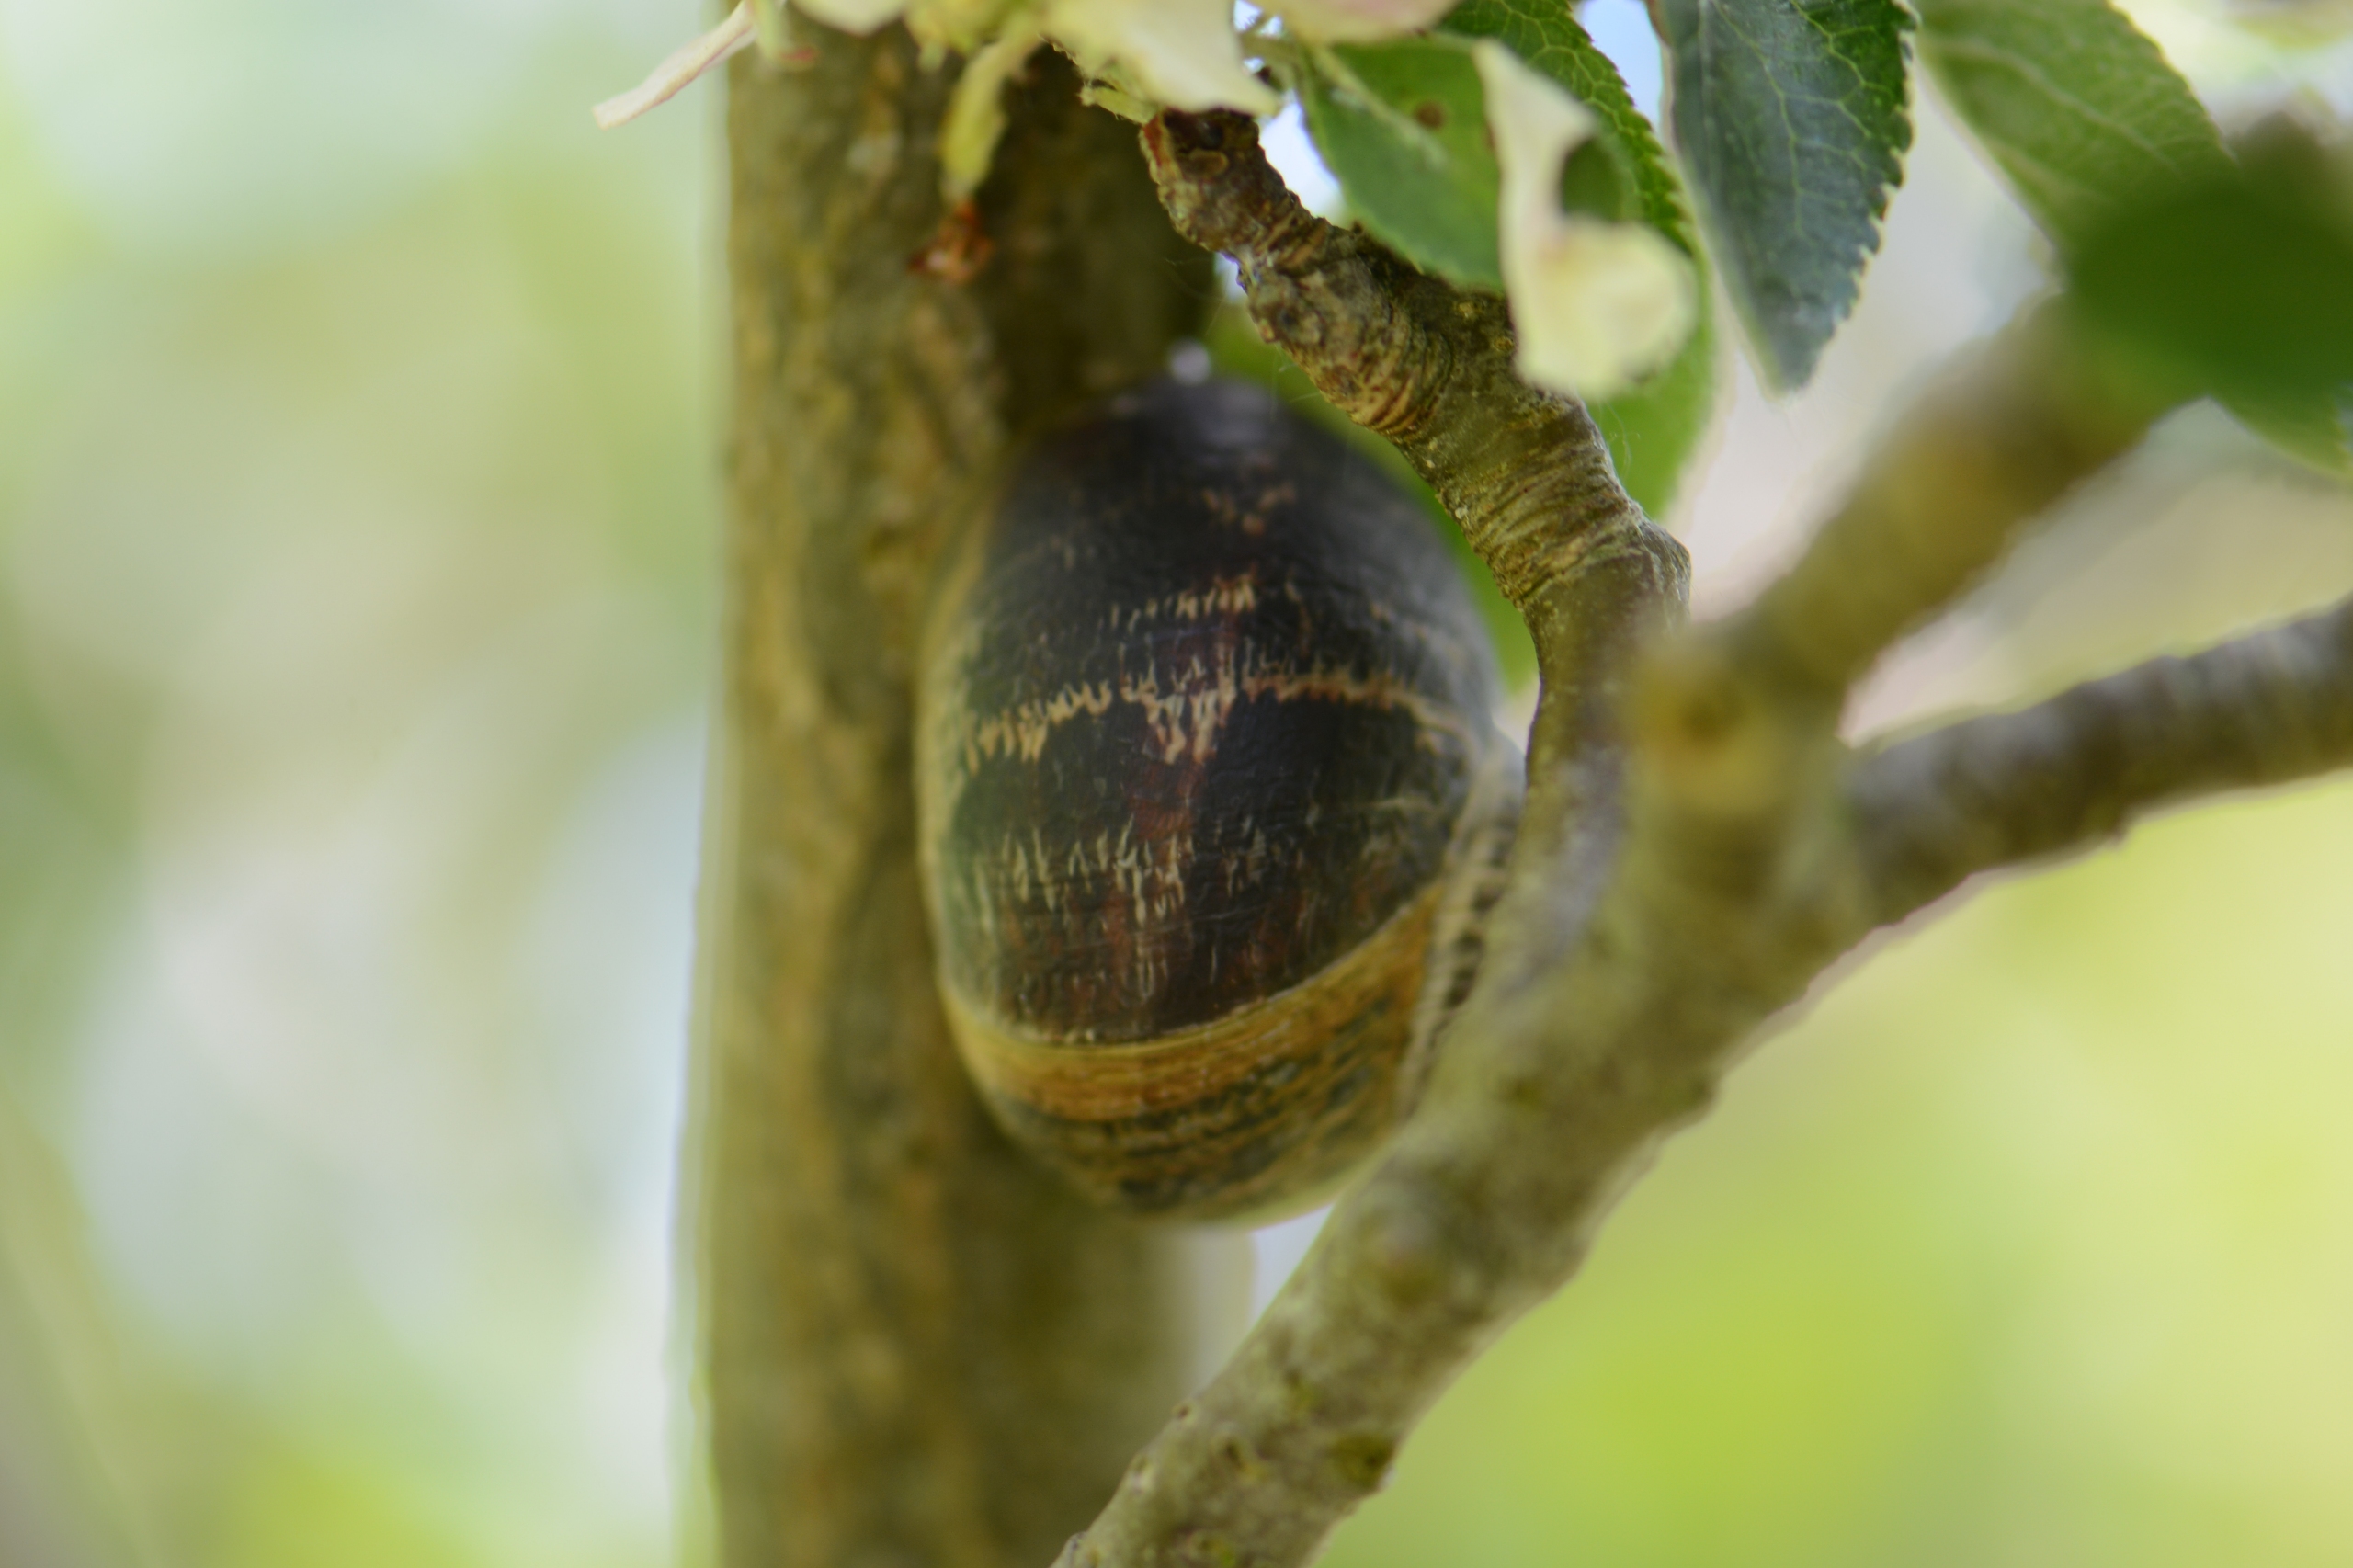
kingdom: Animalia
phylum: Mollusca
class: Gastropoda
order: Stylommatophora
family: Helicidae
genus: Cornu
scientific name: Cornu aspersum
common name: Plettet voldsnegl
